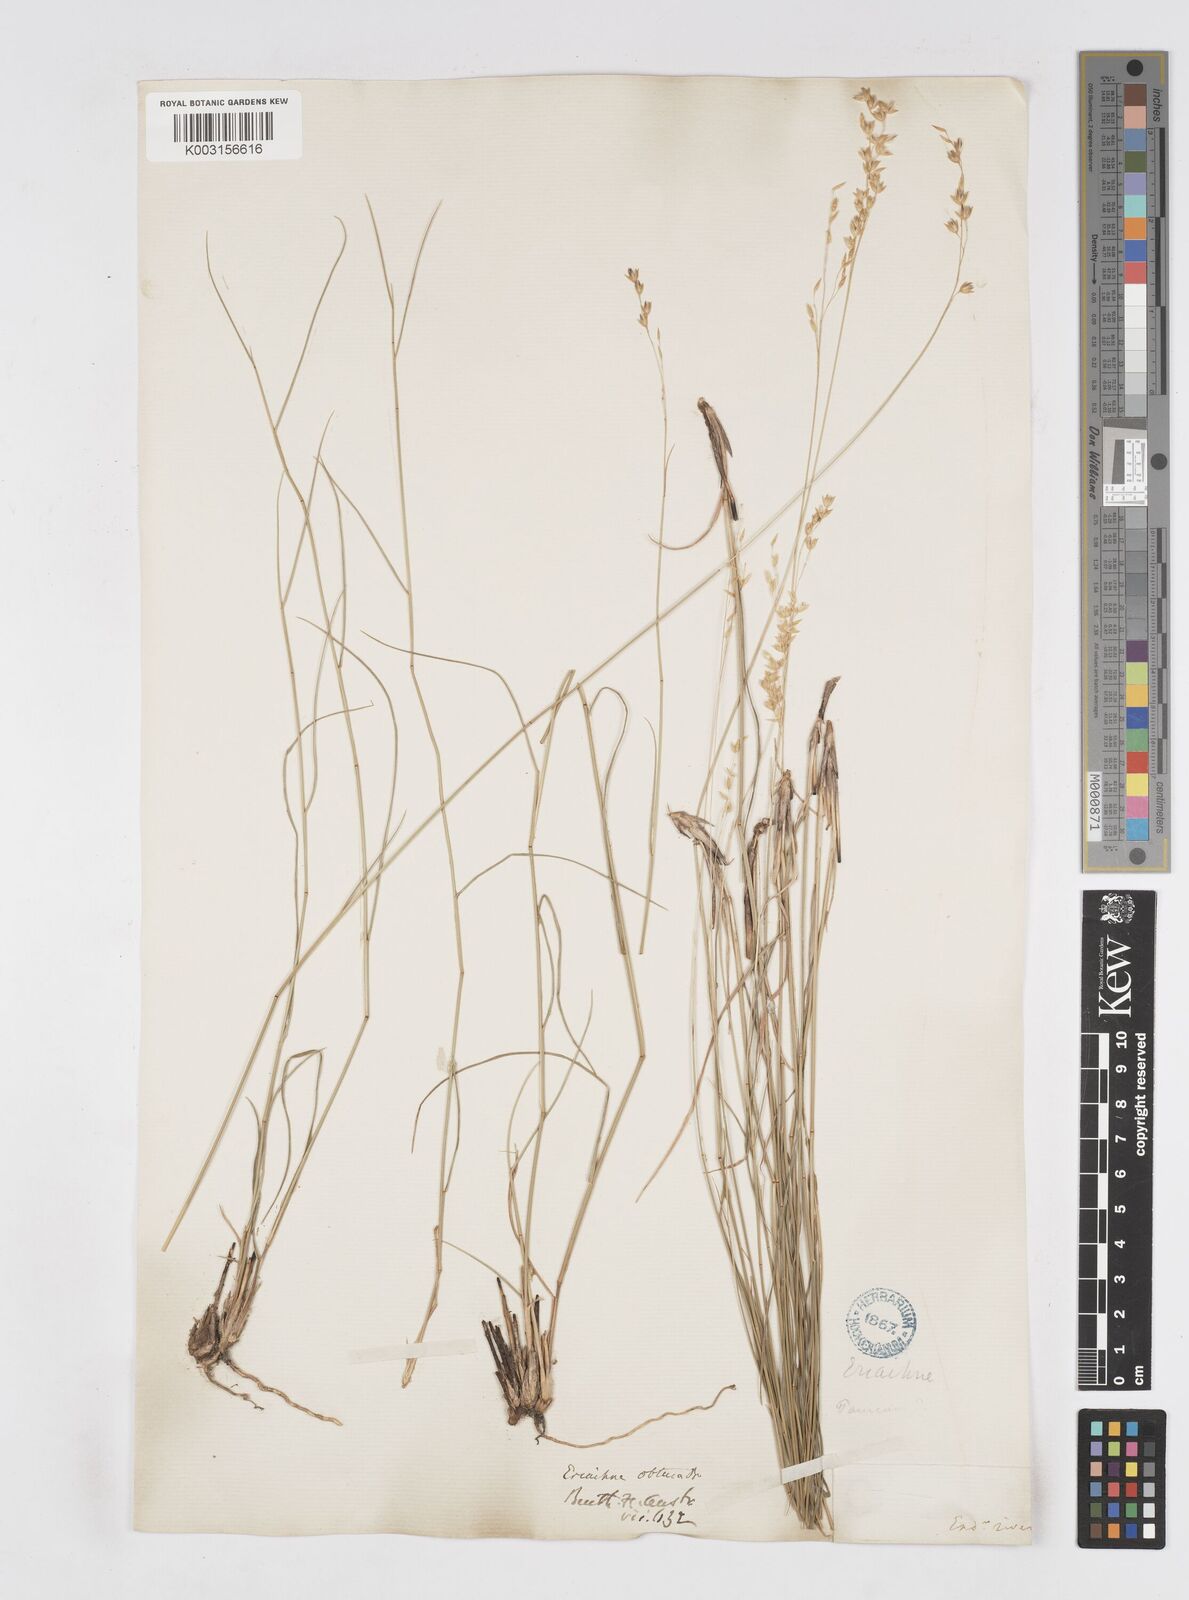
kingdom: Plantae
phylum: Tracheophyta
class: Liliopsida
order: Poales
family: Poaceae
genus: Eriachne
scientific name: Eriachne obtusa
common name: Northern wanderrie grass
